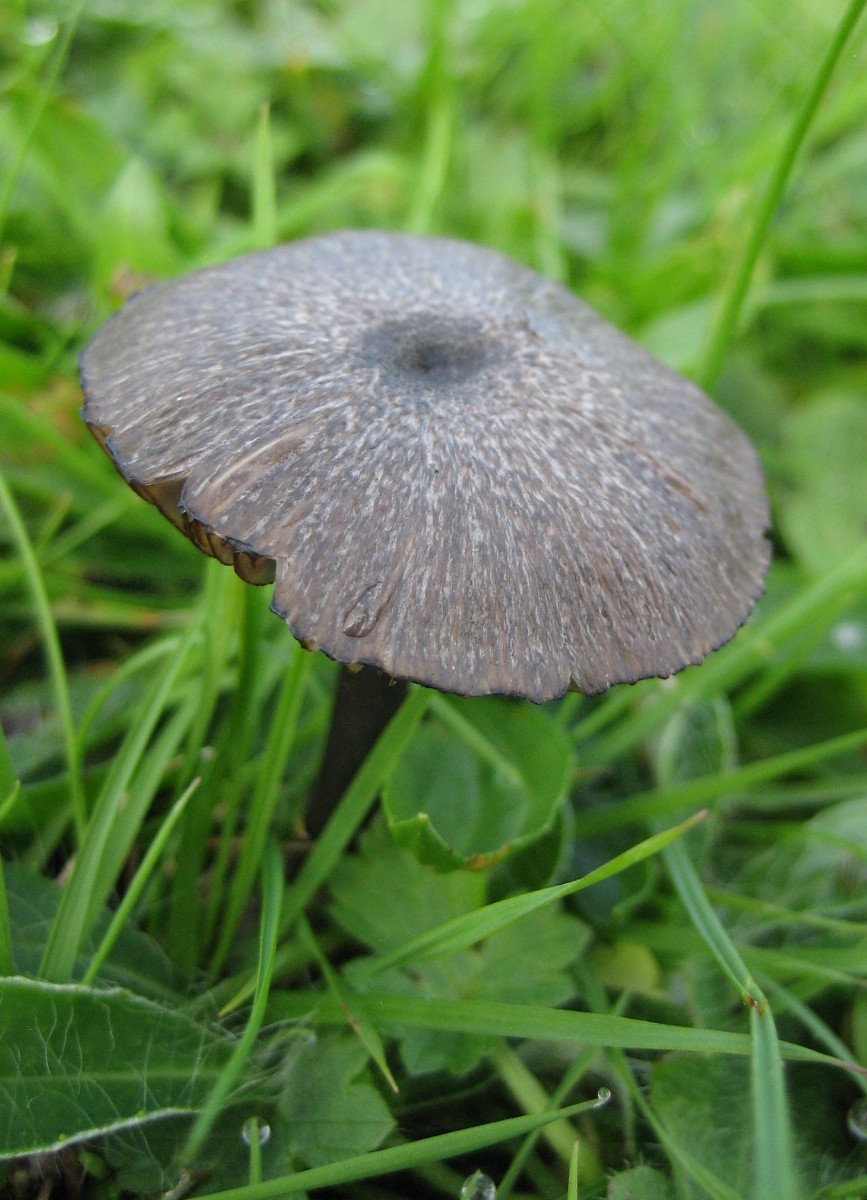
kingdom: Fungi
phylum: Basidiomycota
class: Agaricomycetes
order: Agaricales
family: Entolomataceae
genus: Entoloma
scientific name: Entoloma
